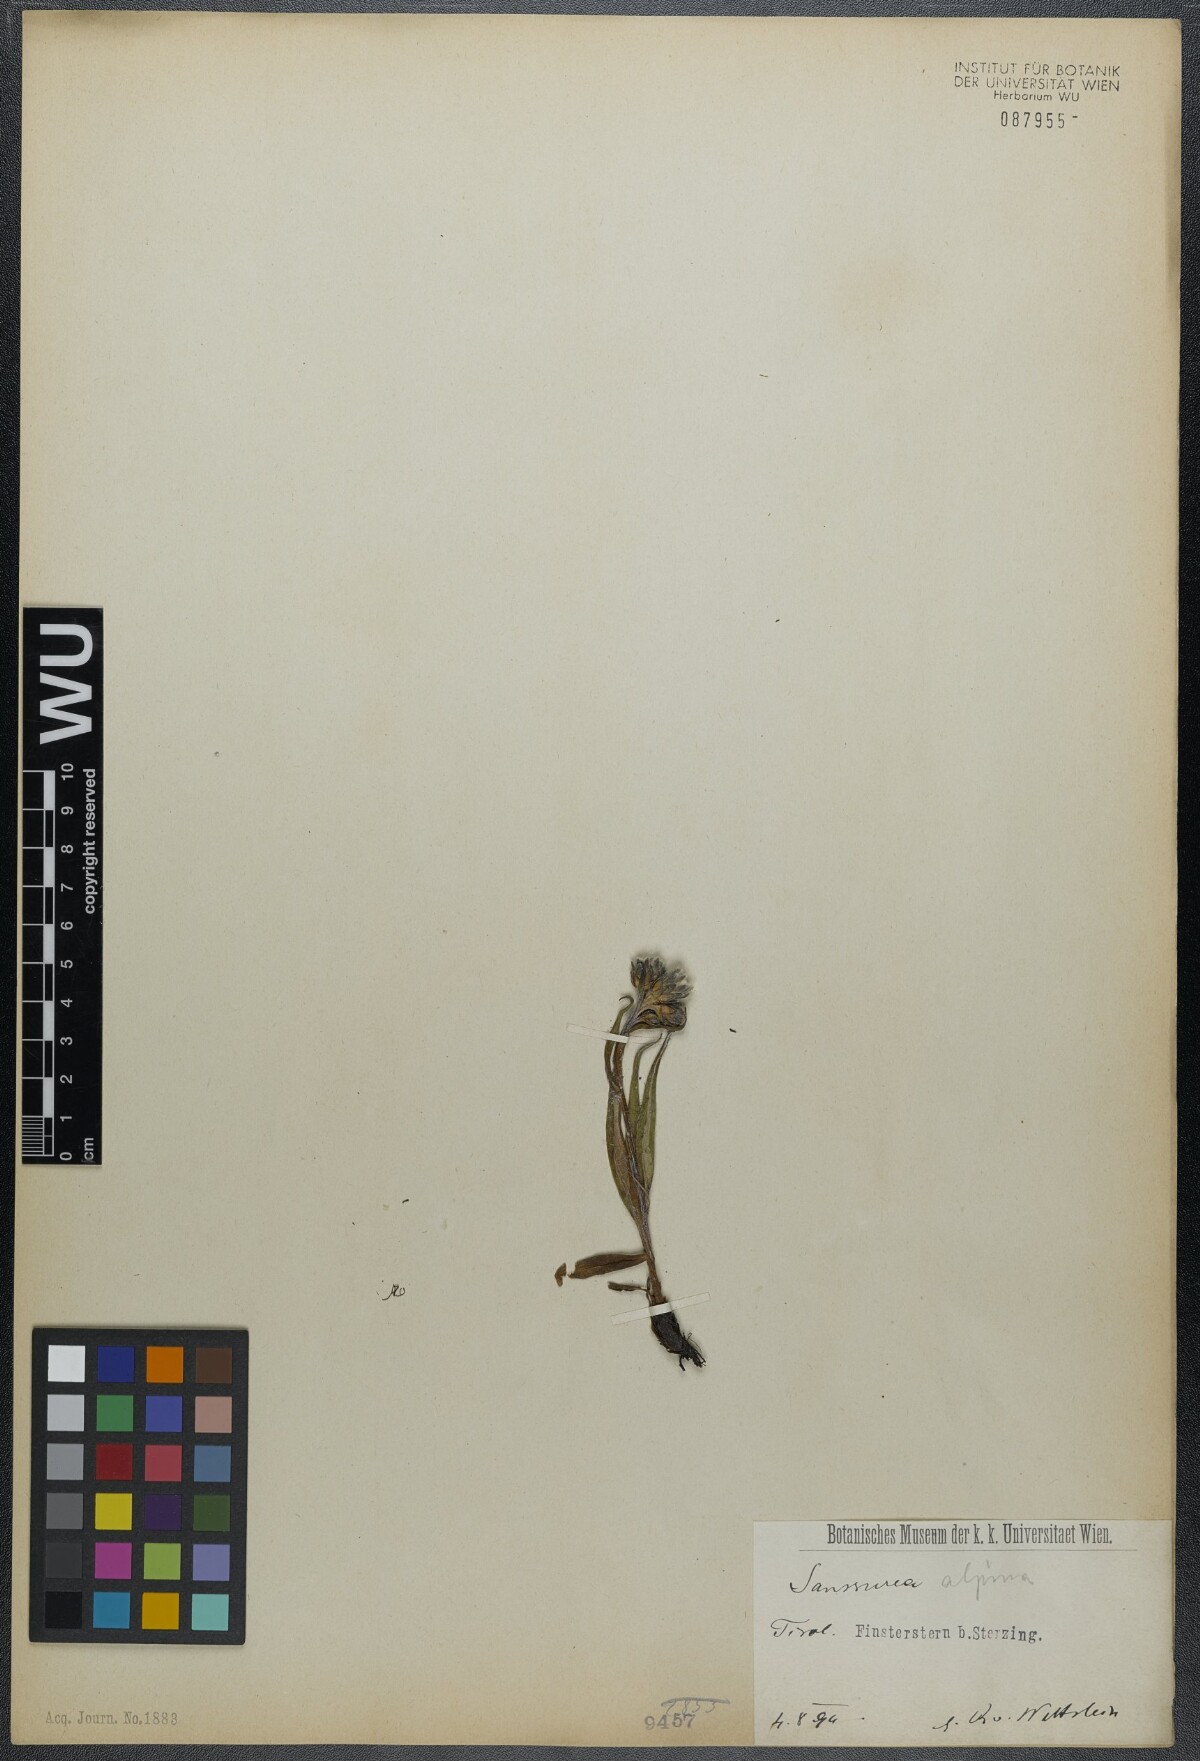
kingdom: Plantae
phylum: Tracheophyta
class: Magnoliopsida
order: Asterales
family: Asteraceae
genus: Saussurea
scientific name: Saussurea alpina
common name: Alpine saw-wort
